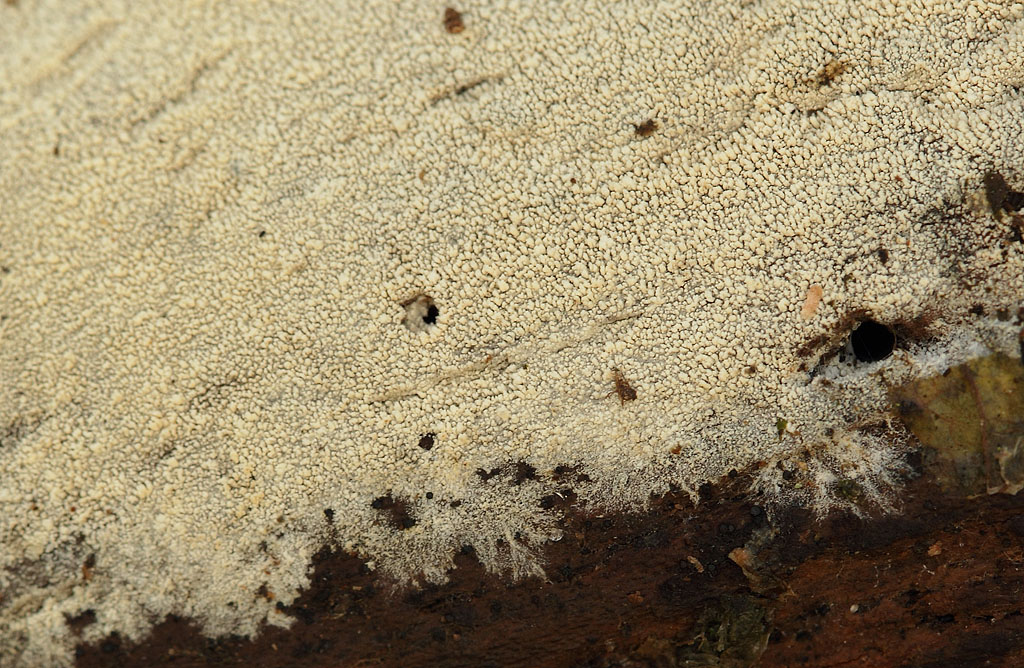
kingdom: Fungi
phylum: Basidiomycota
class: Agaricomycetes
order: Trechisporales
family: Sistotremataceae
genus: Trechispora
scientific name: Trechispora farinacea
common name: pigget vathinde
